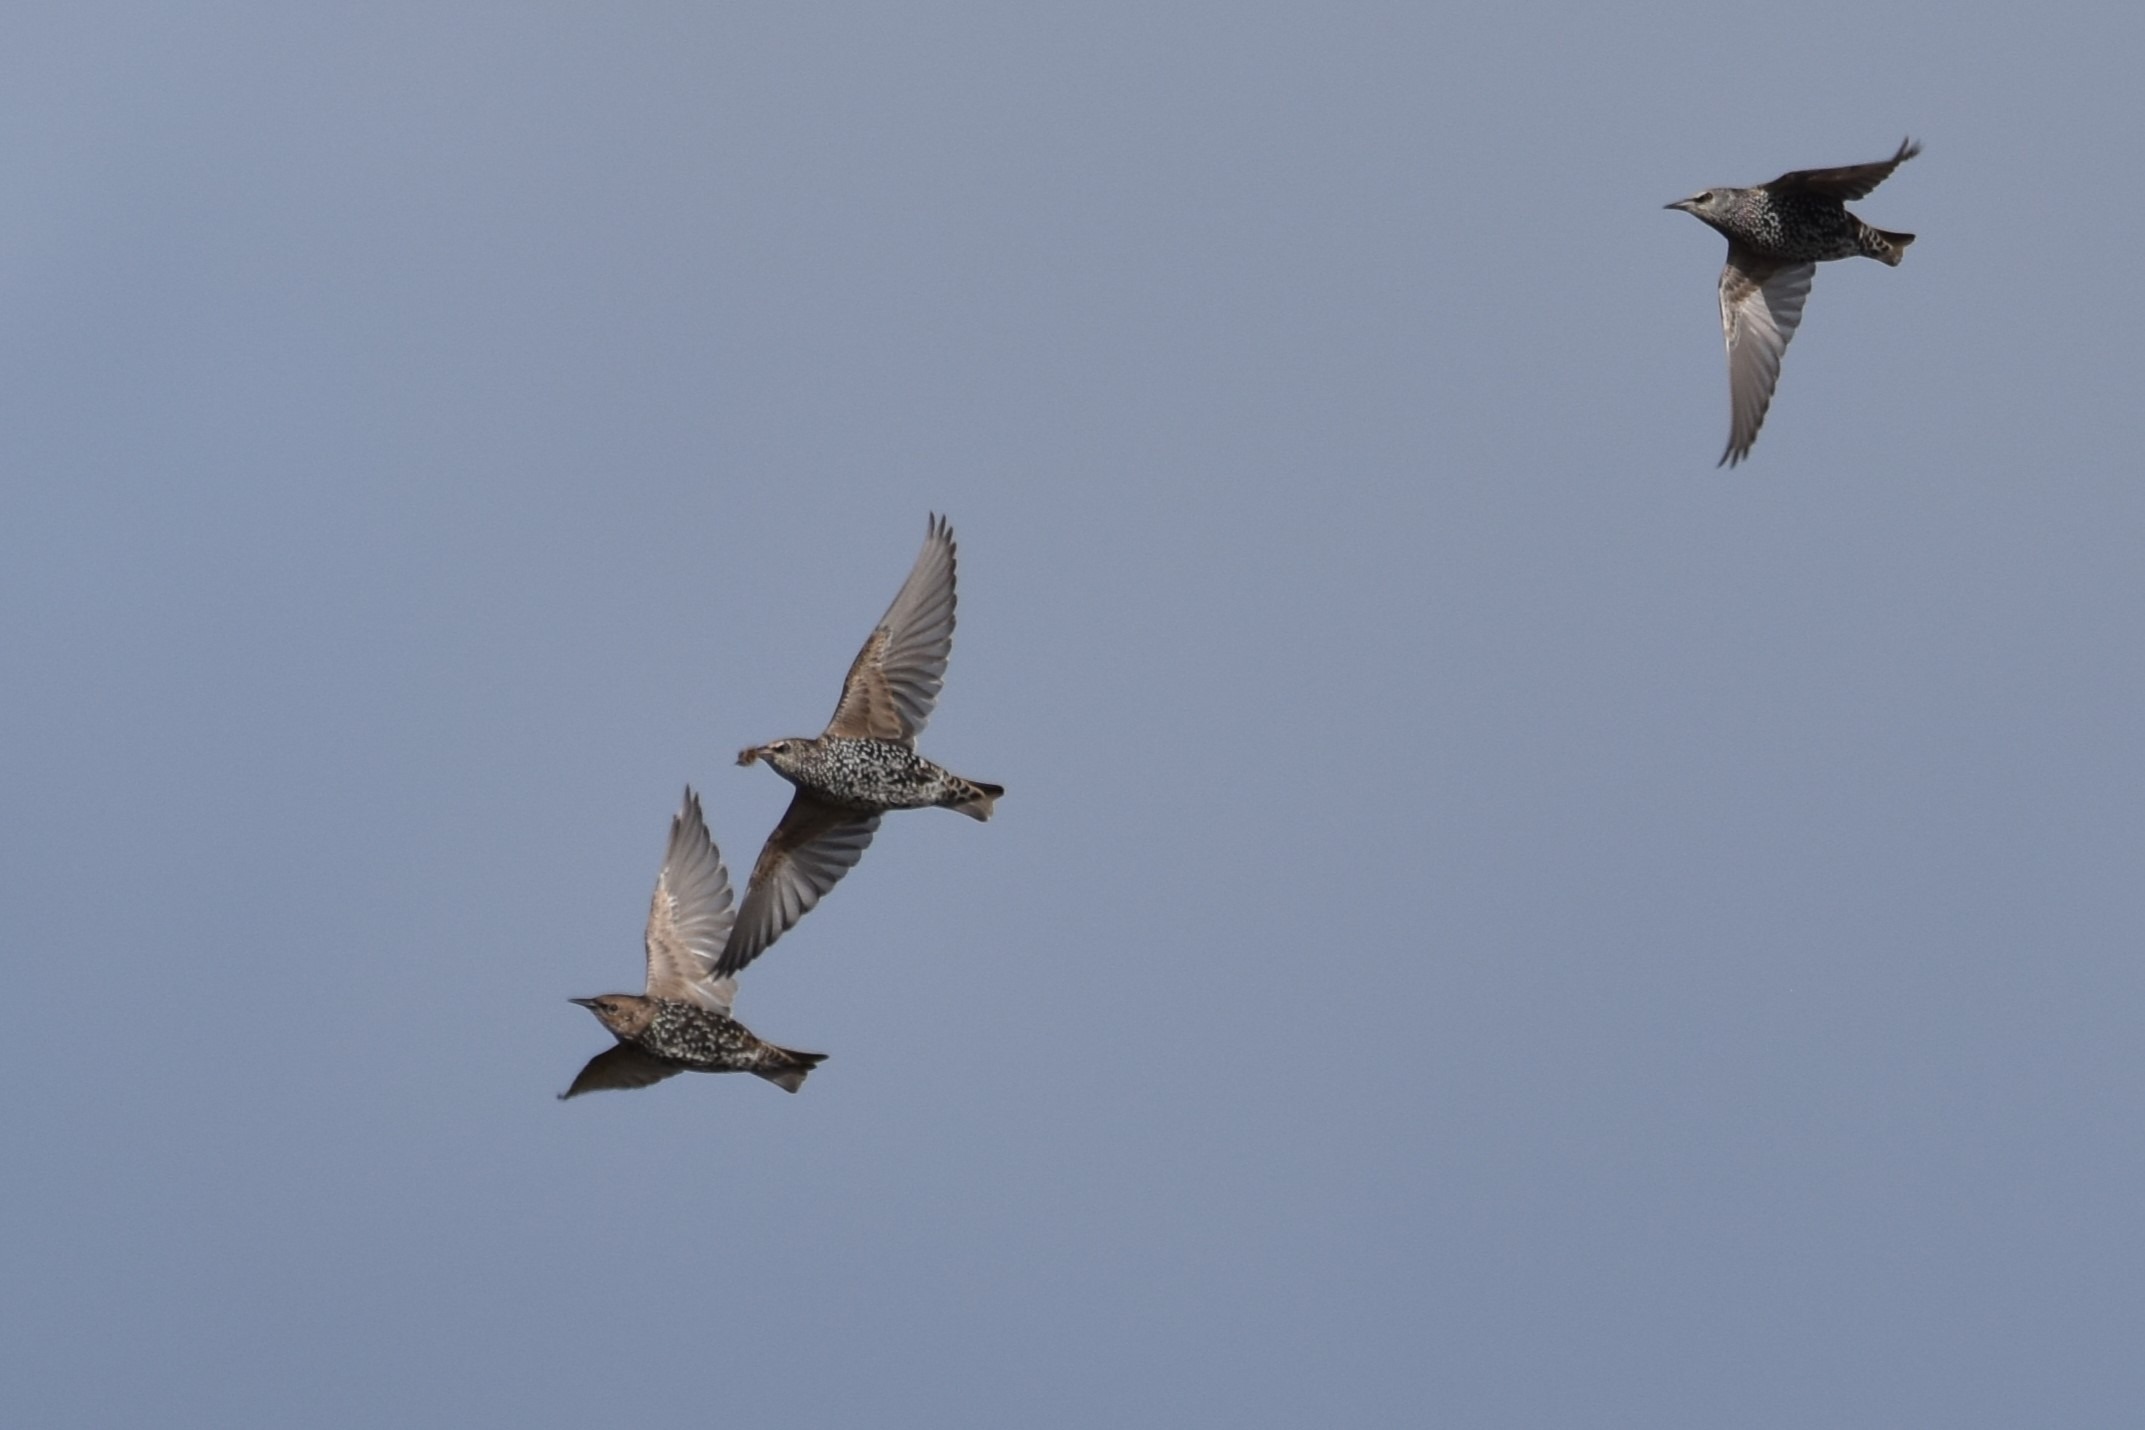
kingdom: Animalia
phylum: Chordata
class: Aves
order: Passeriformes
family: Sturnidae
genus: Sturnus
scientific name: Sturnus vulgaris
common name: Stær
